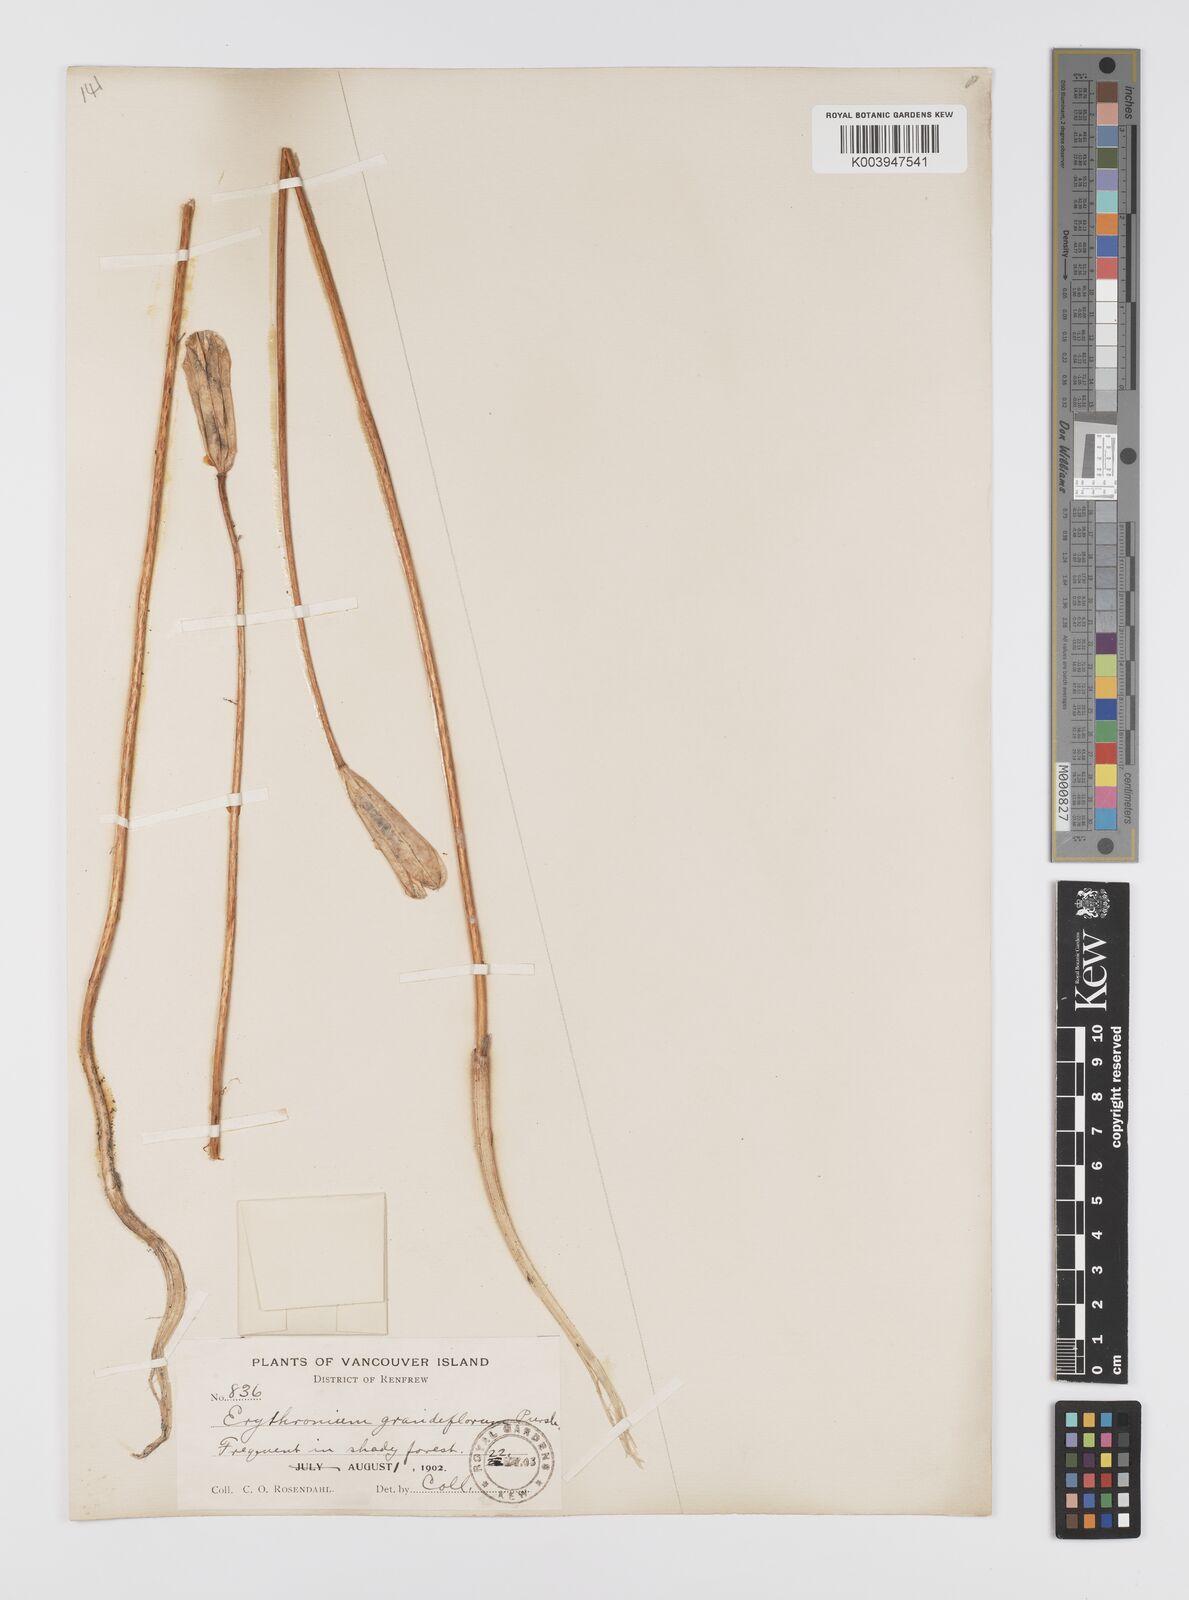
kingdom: Plantae
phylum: Tracheophyta
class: Liliopsida
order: Liliales
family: Liliaceae
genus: Erythronium
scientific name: Erythronium grandiflorum
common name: Avalanche-lily
